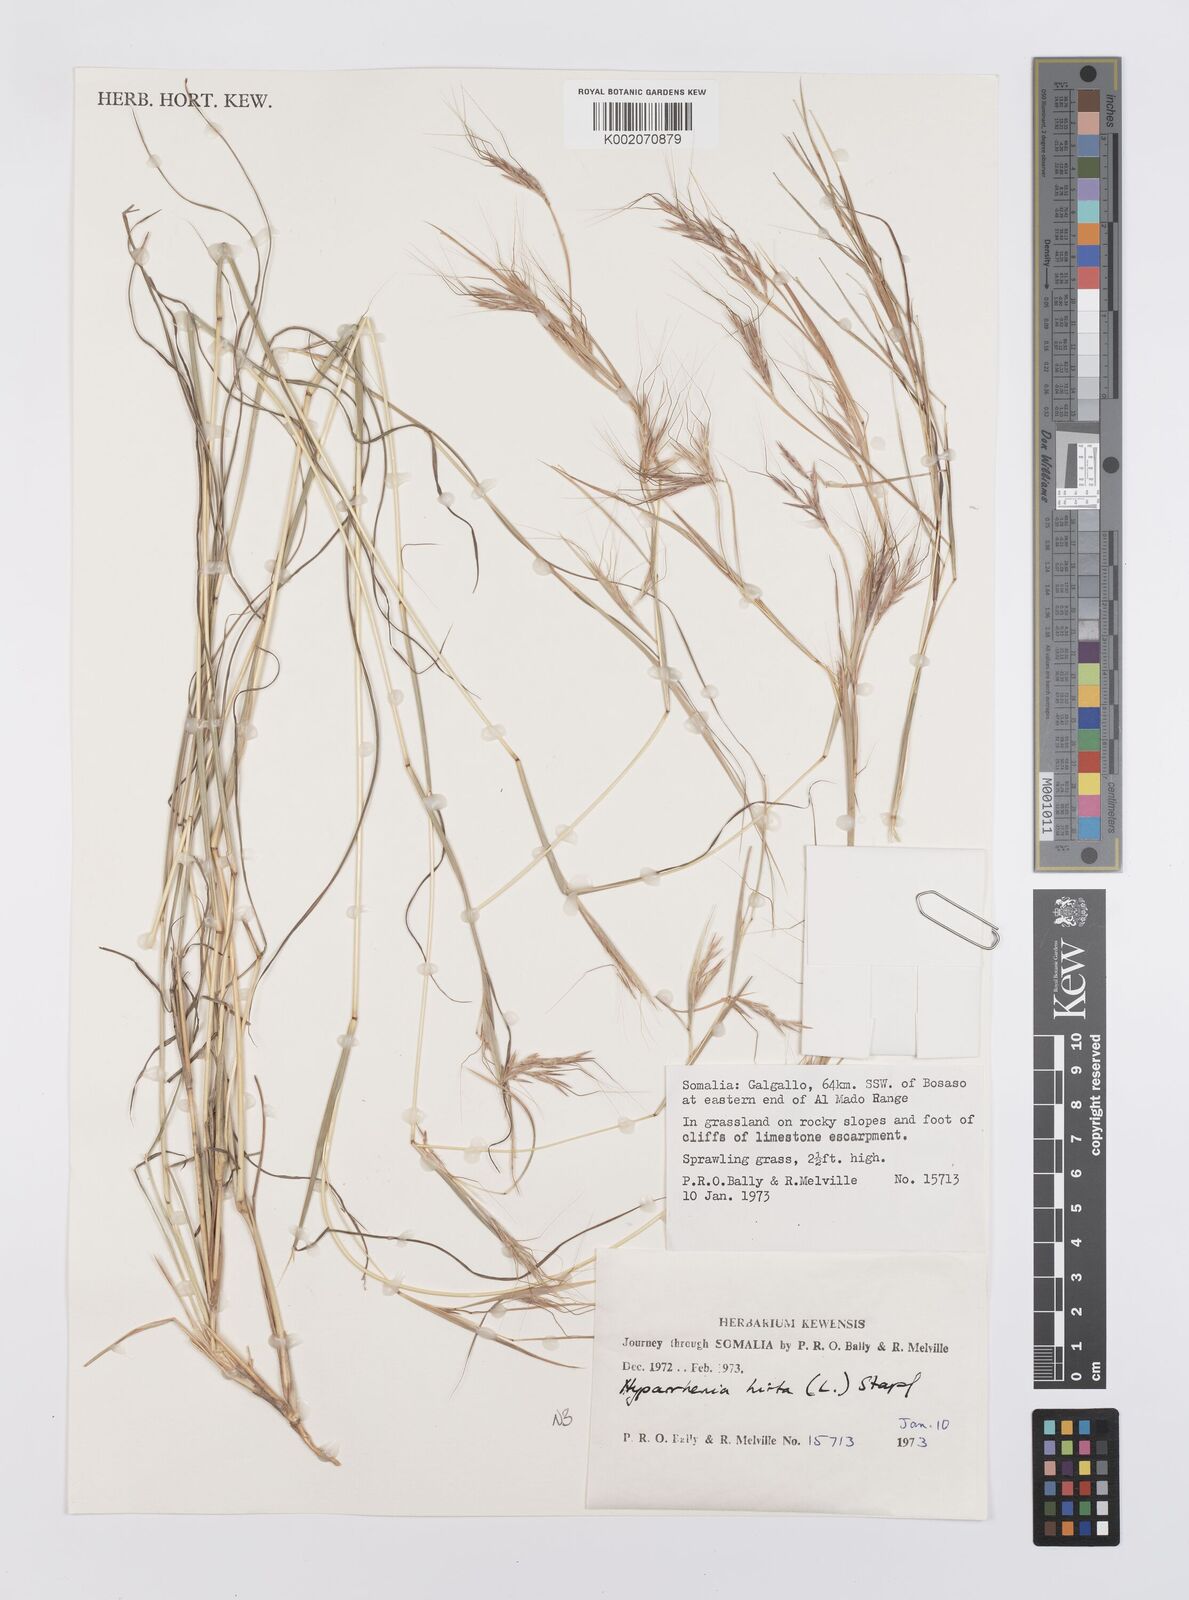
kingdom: Plantae
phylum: Tracheophyta
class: Liliopsida
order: Poales
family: Poaceae
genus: Hyparrhenia
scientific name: Hyparrhenia hirta
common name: Thatching grass
